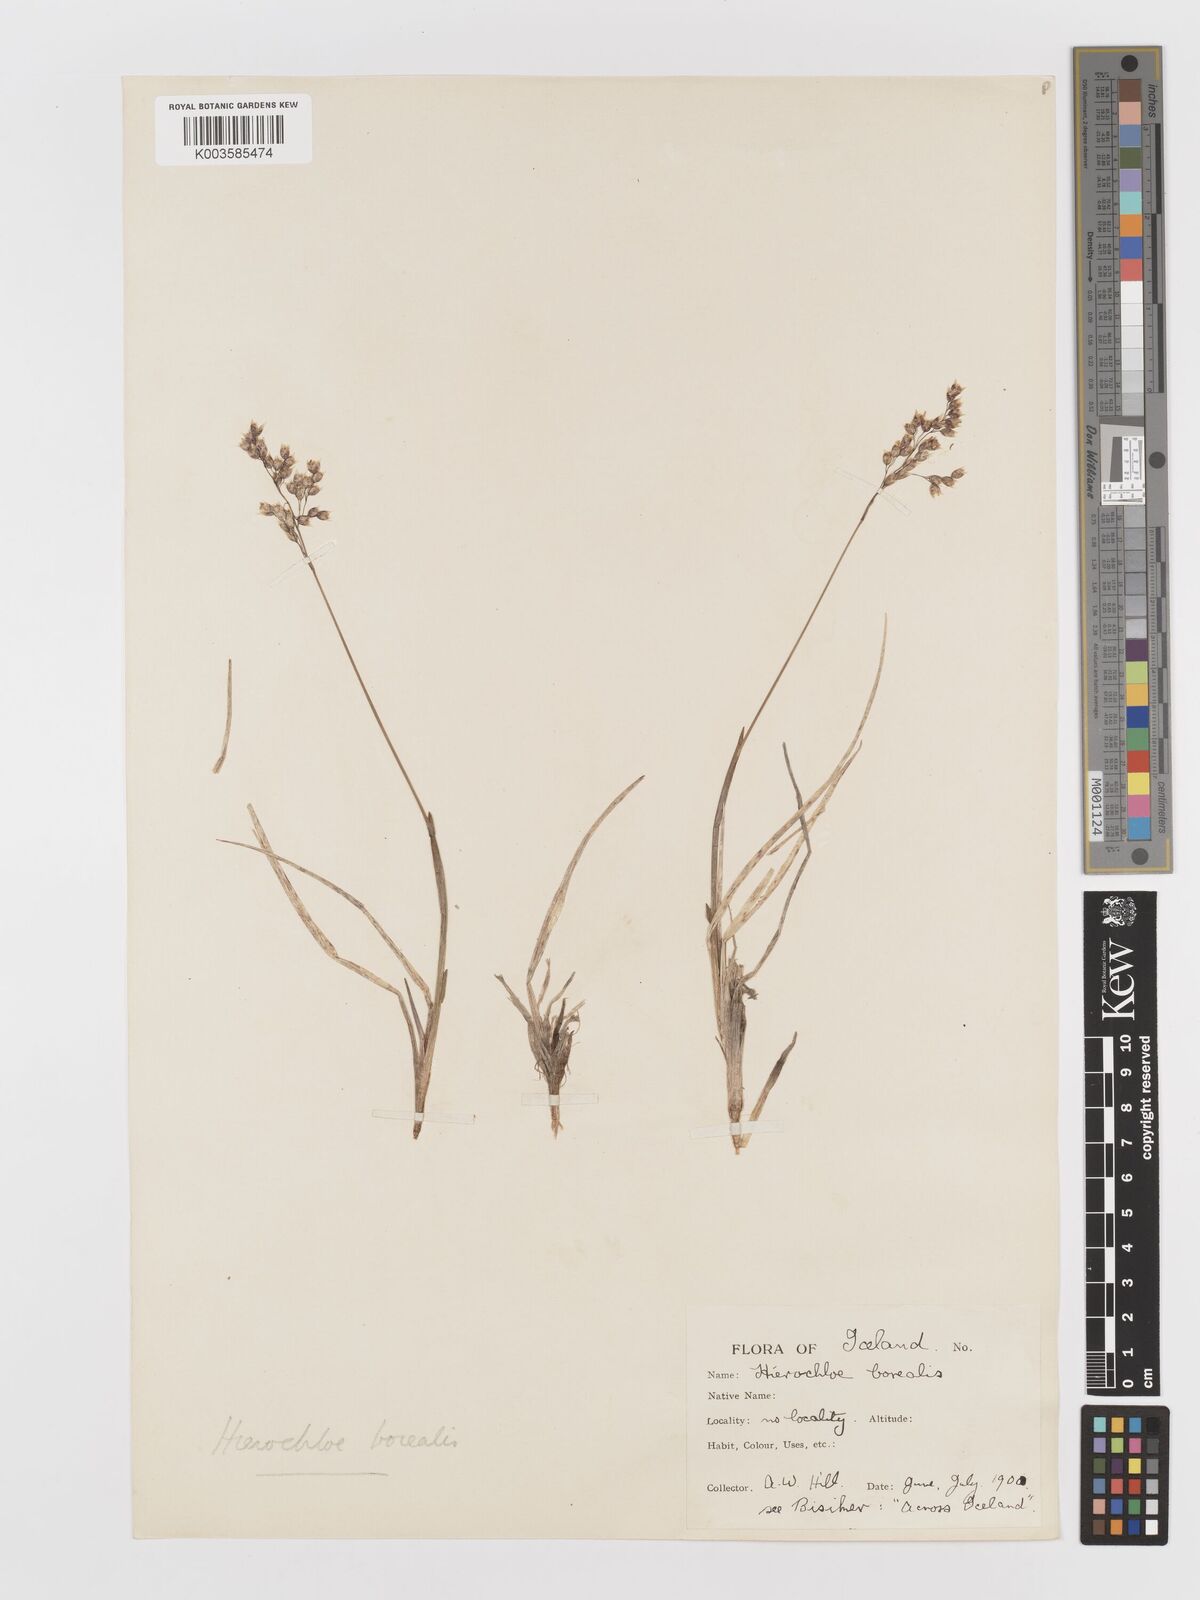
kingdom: Plantae
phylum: Tracheophyta
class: Liliopsida
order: Poales
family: Poaceae
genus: Anthoxanthum
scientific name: Anthoxanthum nitens
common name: Holy grass
